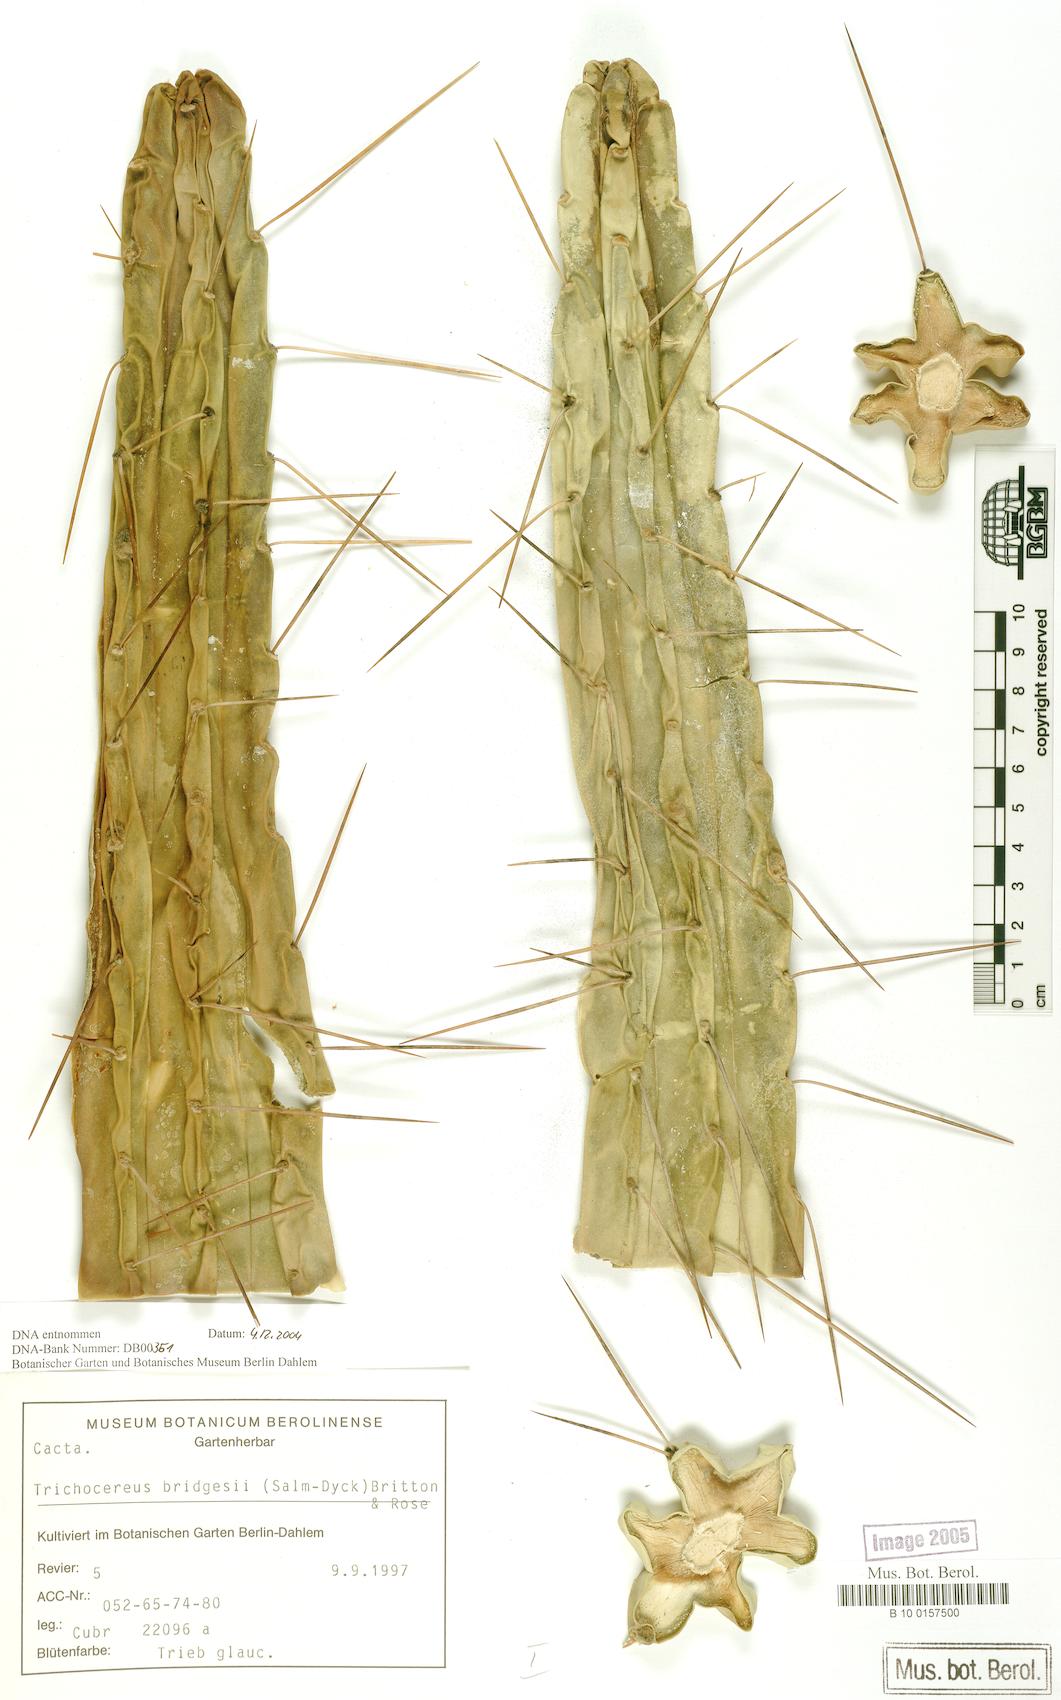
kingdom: Plantae
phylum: Tracheophyta
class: Magnoliopsida
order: Caryophyllales
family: Cactaceae
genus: Echinopsis
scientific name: Echinopsis lageniformis
